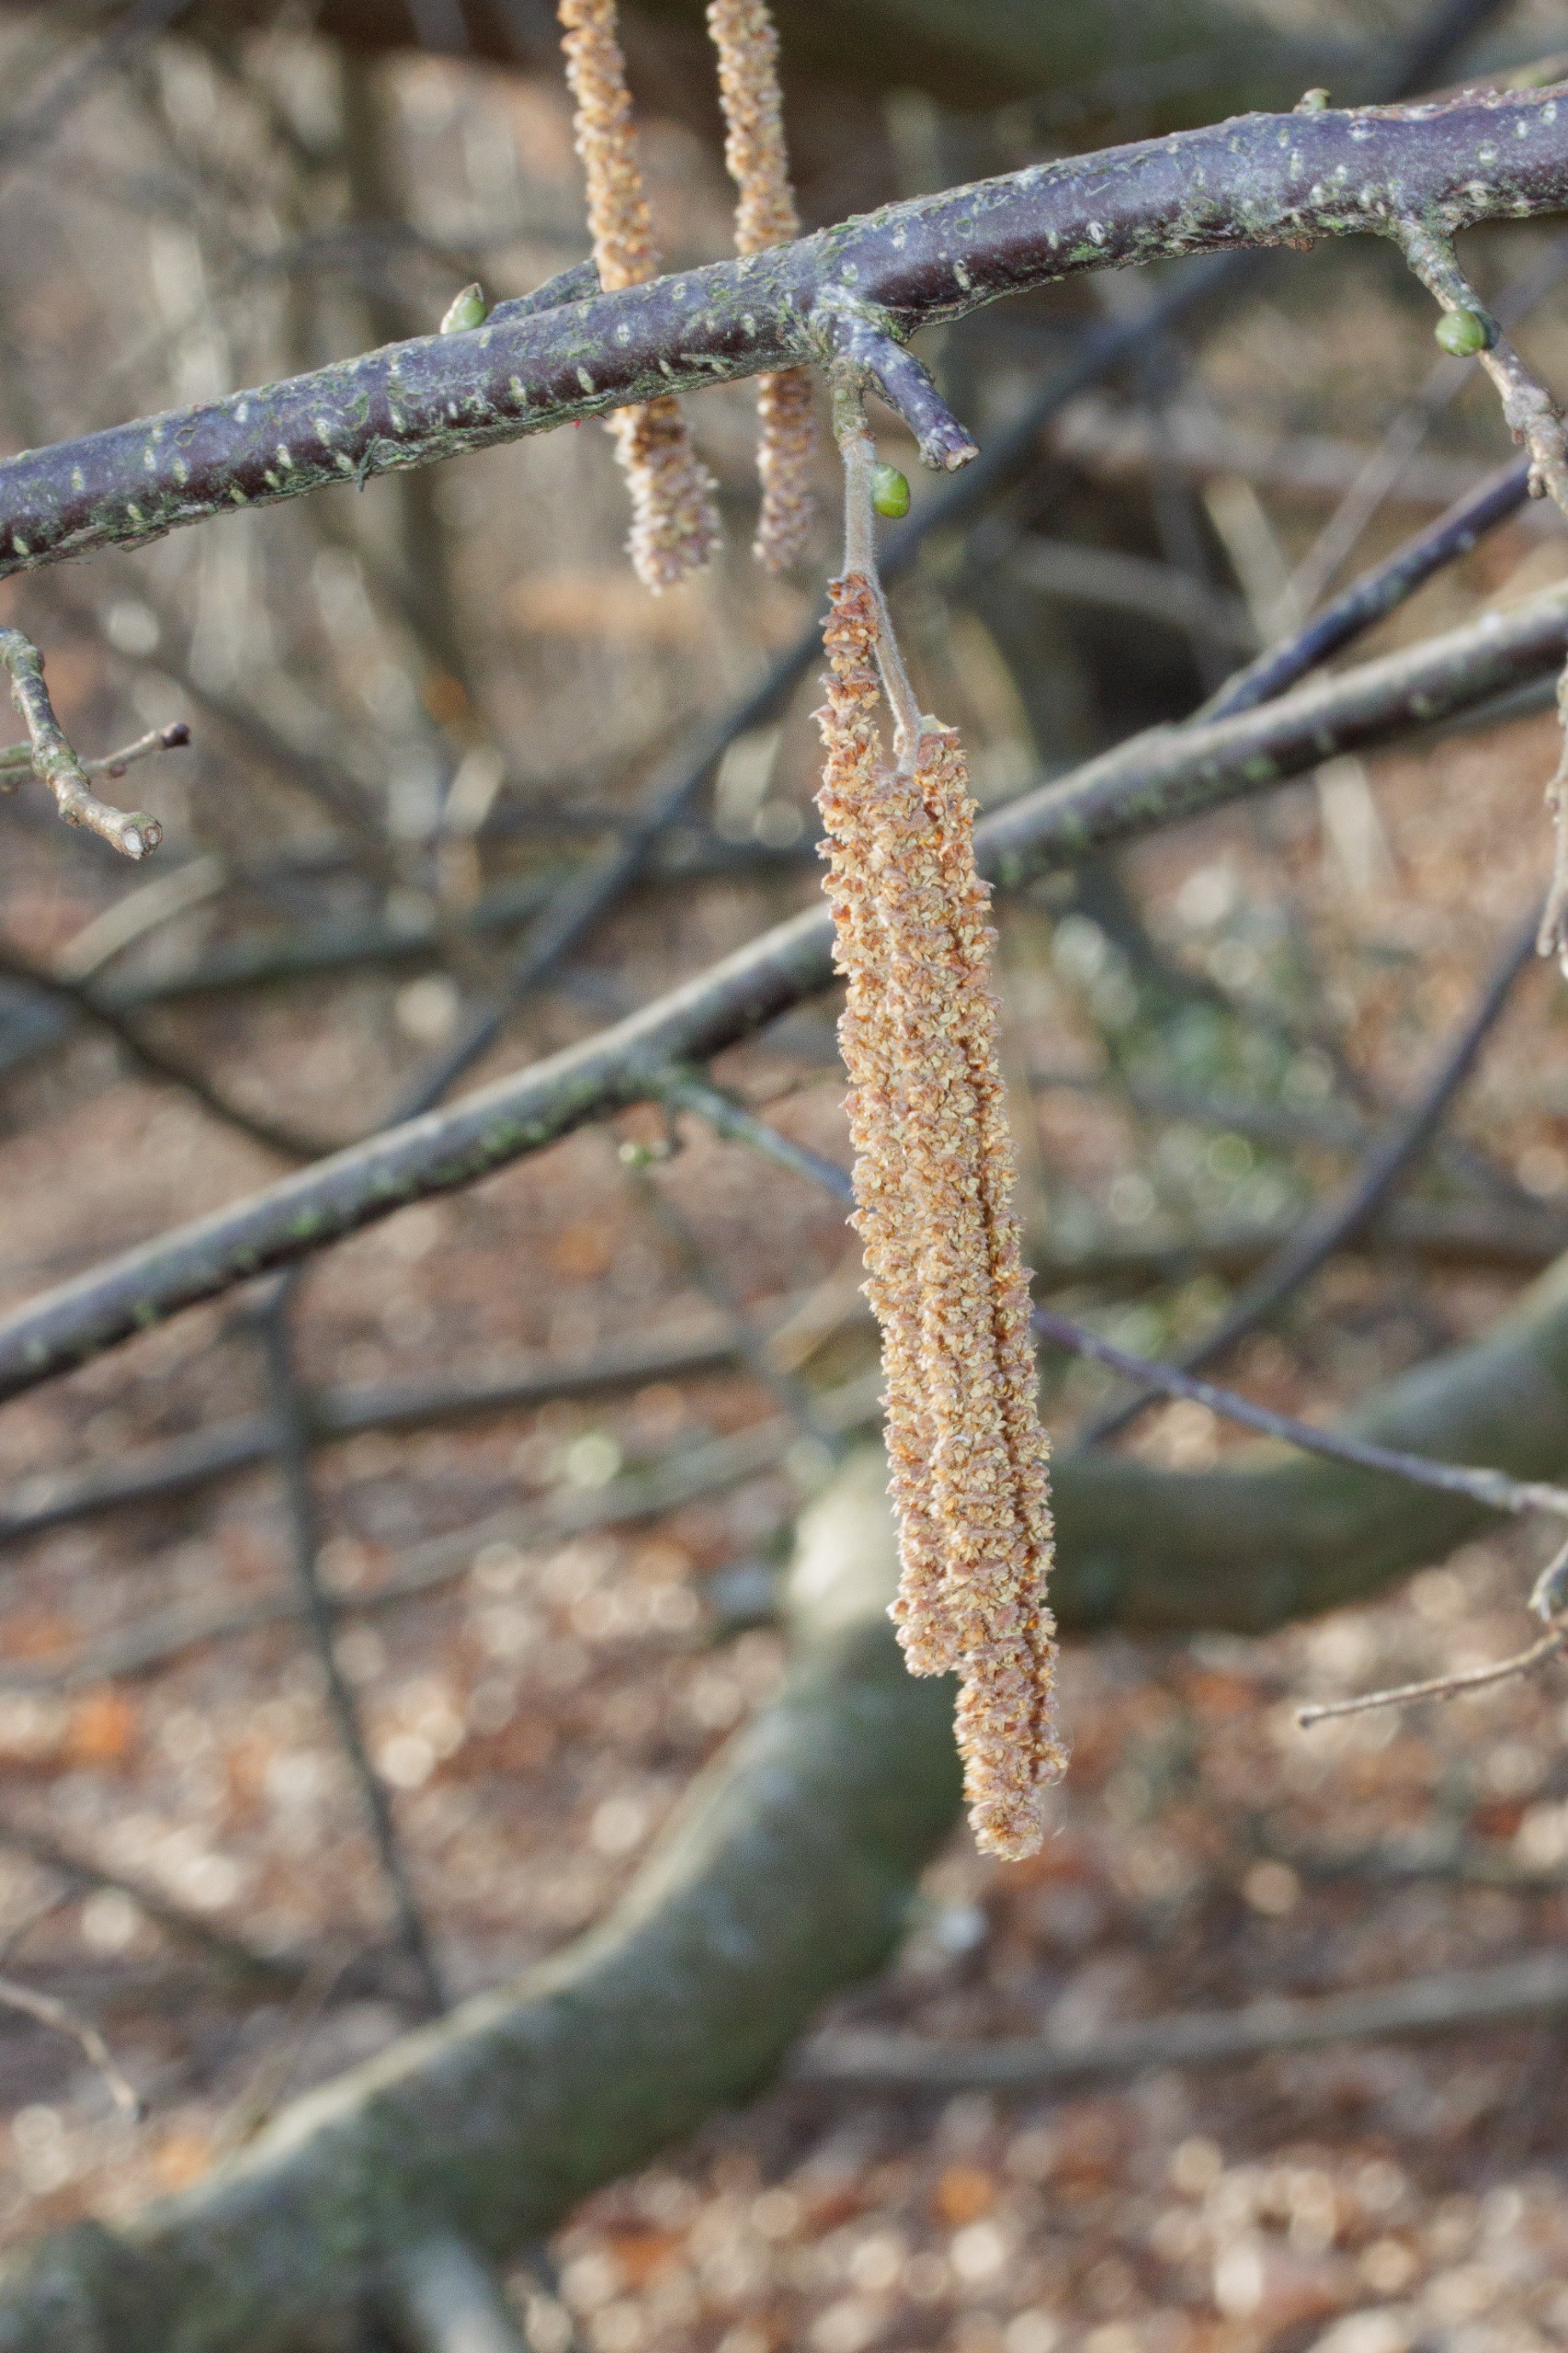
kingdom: Plantae
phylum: Tracheophyta
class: Magnoliopsida
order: Fagales
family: Betulaceae
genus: Corylus
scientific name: Corylus avellana
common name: Hassel
